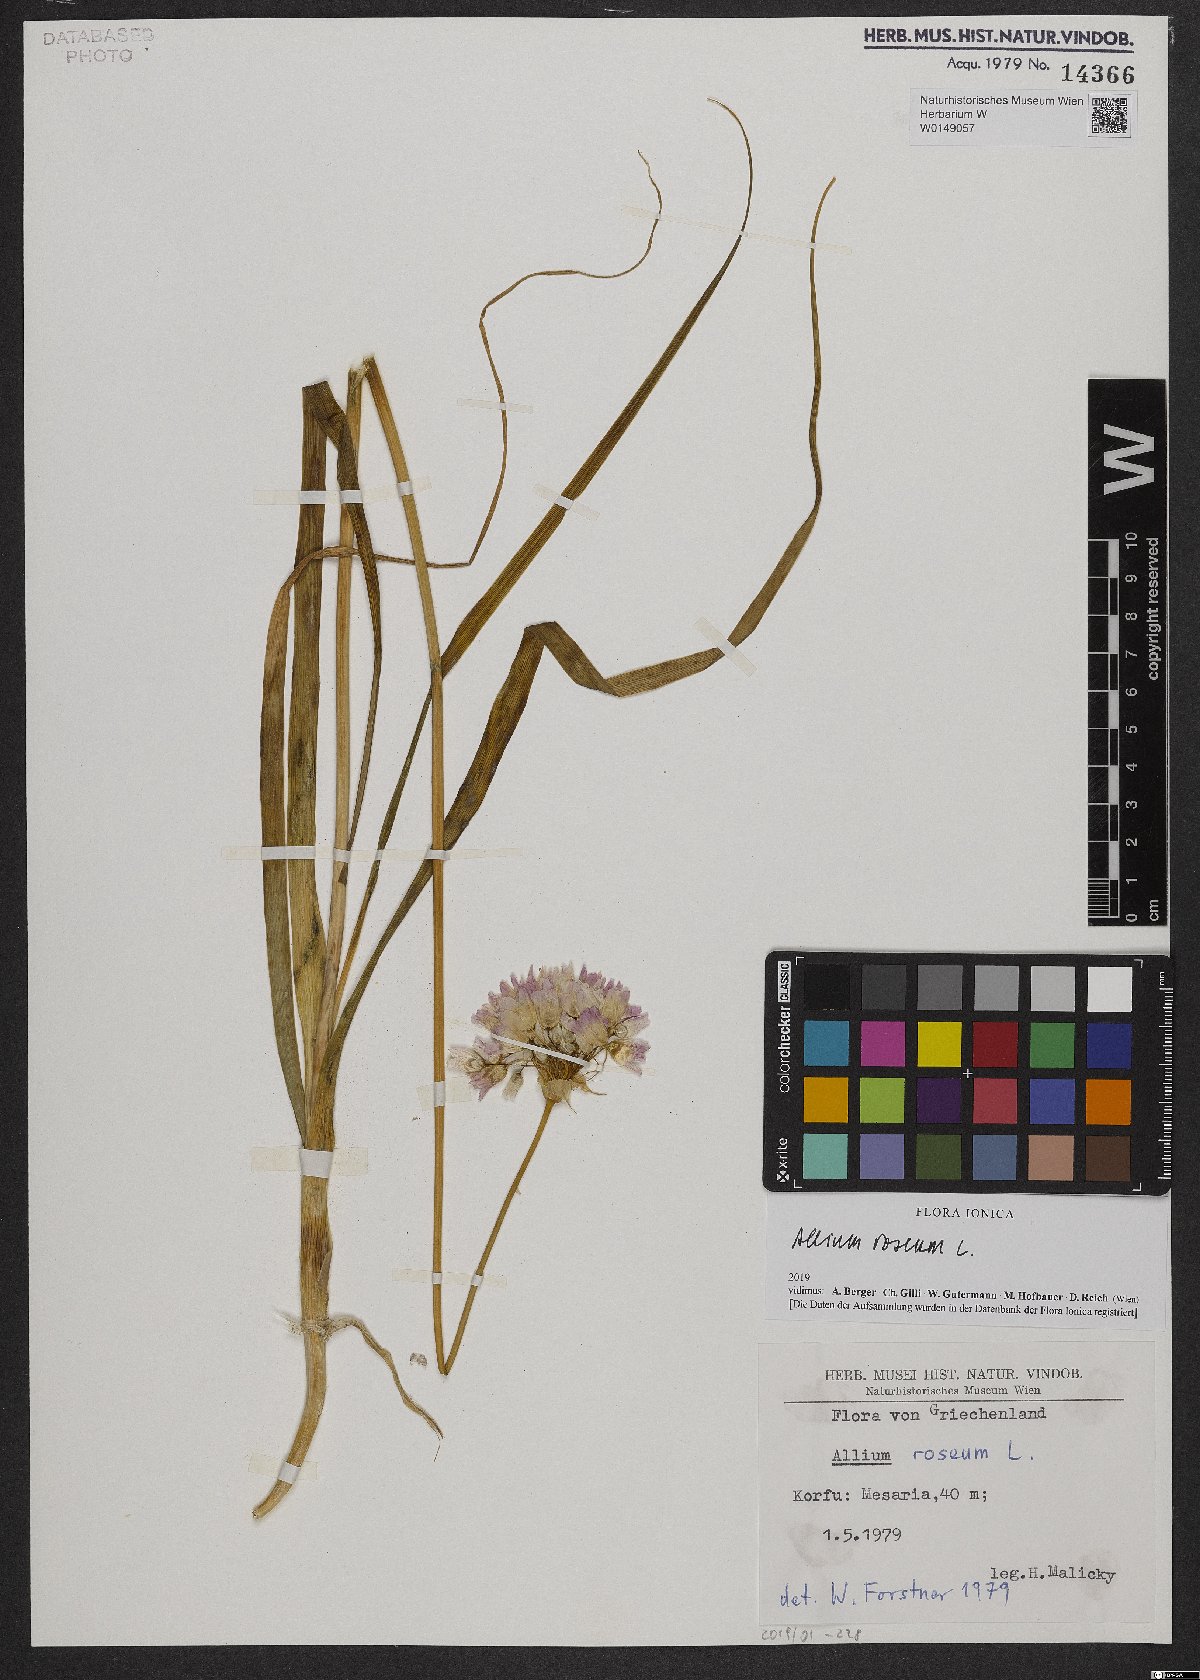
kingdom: Plantae
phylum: Tracheophyta
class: Liliopsida
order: Asparagales
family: Amaryllidaceae
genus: Allium
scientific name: Allium roseum
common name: Rosy garlic
